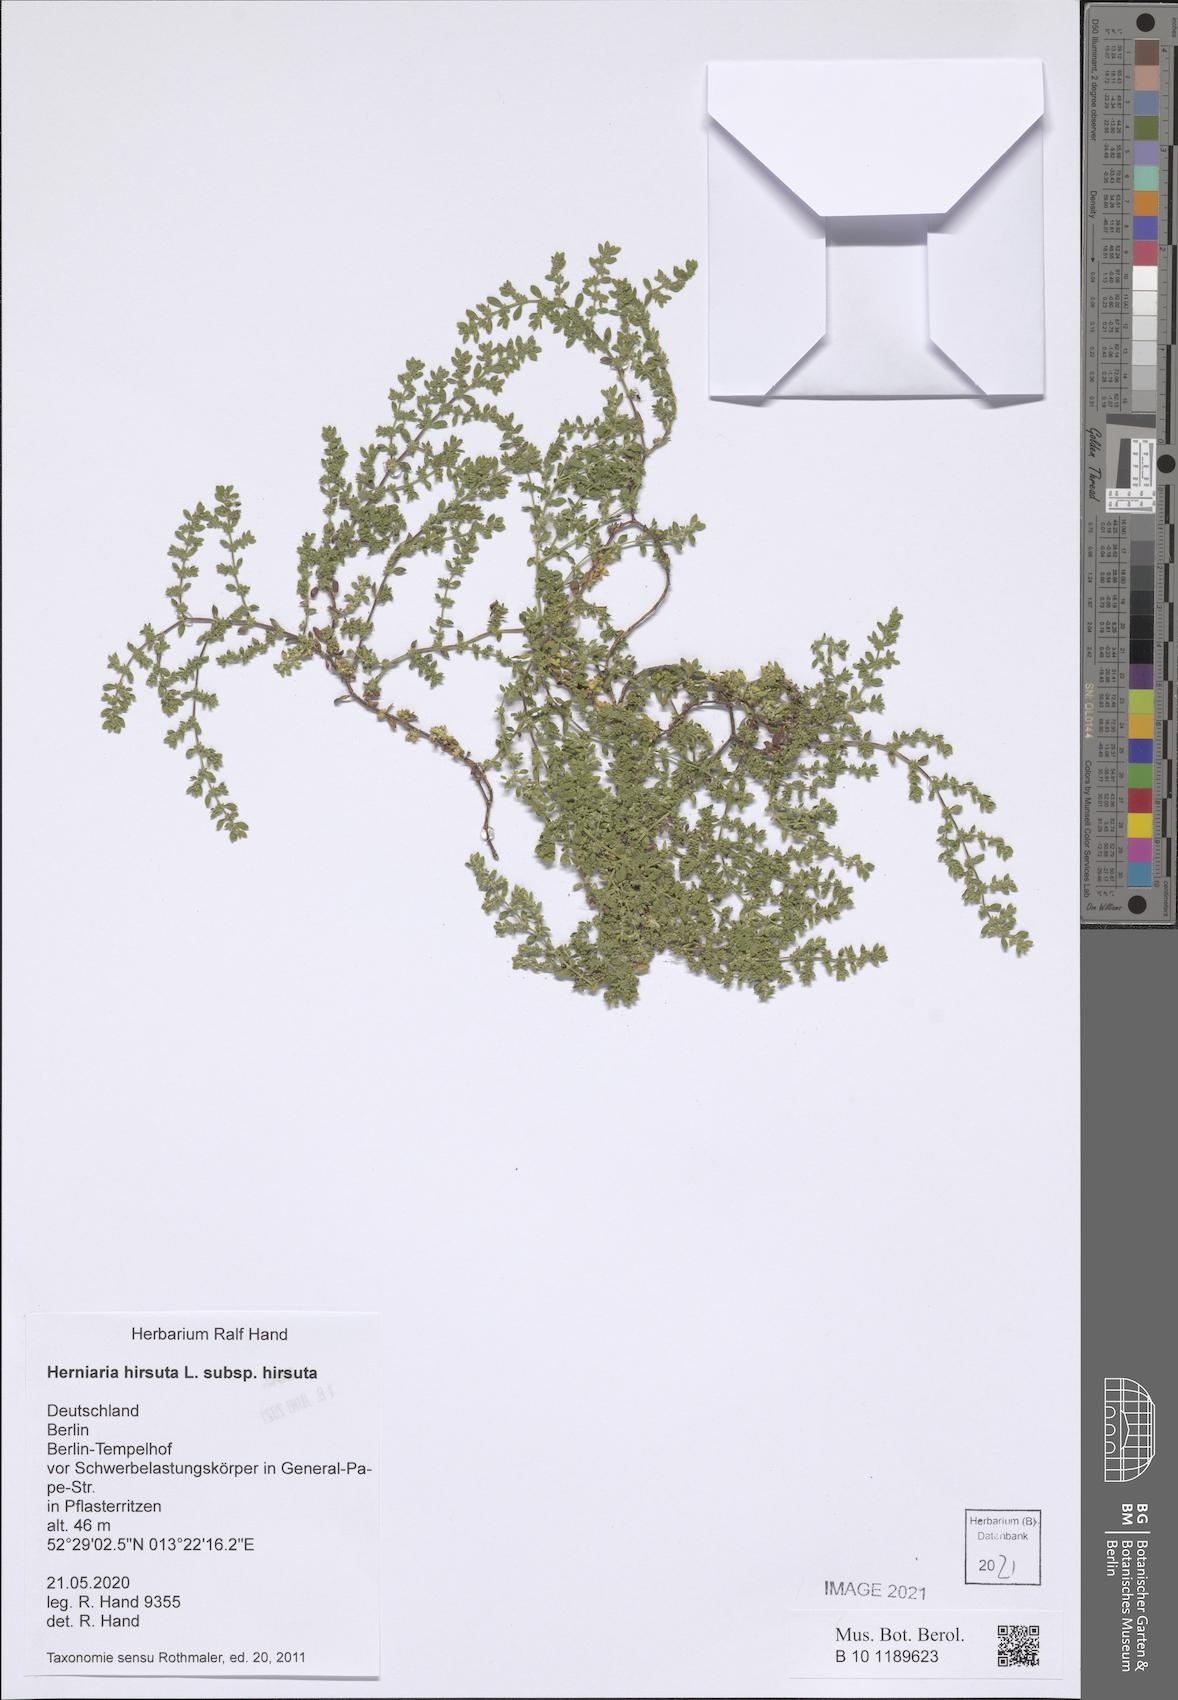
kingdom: Plantae
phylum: Tracheophyta
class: Magnoliopsida
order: Caryophyllales
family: Caryophyllaceae
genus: Herniaria
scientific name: Herniaria hirsuta
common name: Hairy rupturewort
